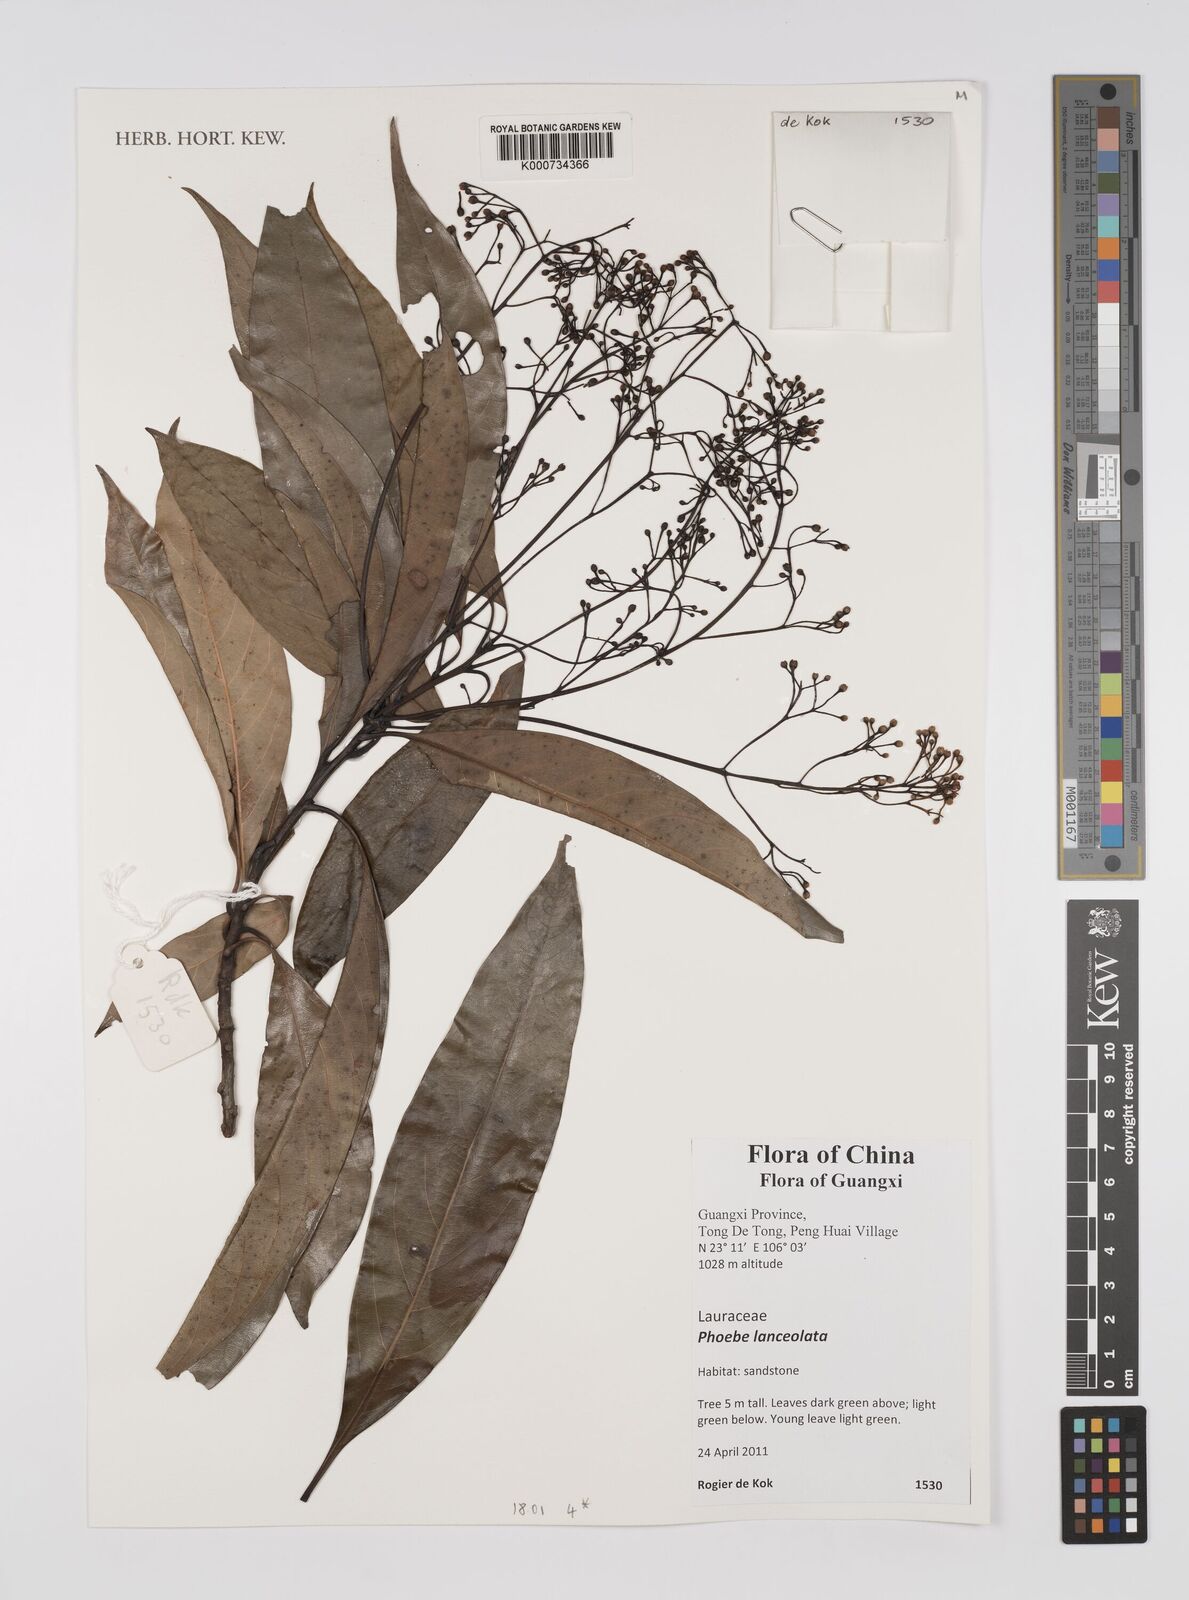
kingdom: Plantae
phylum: Tracheophyta
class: Magnoliopsida
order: Laurales
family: Lauraceae
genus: Phoebe
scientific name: Phoebe lanceolata
